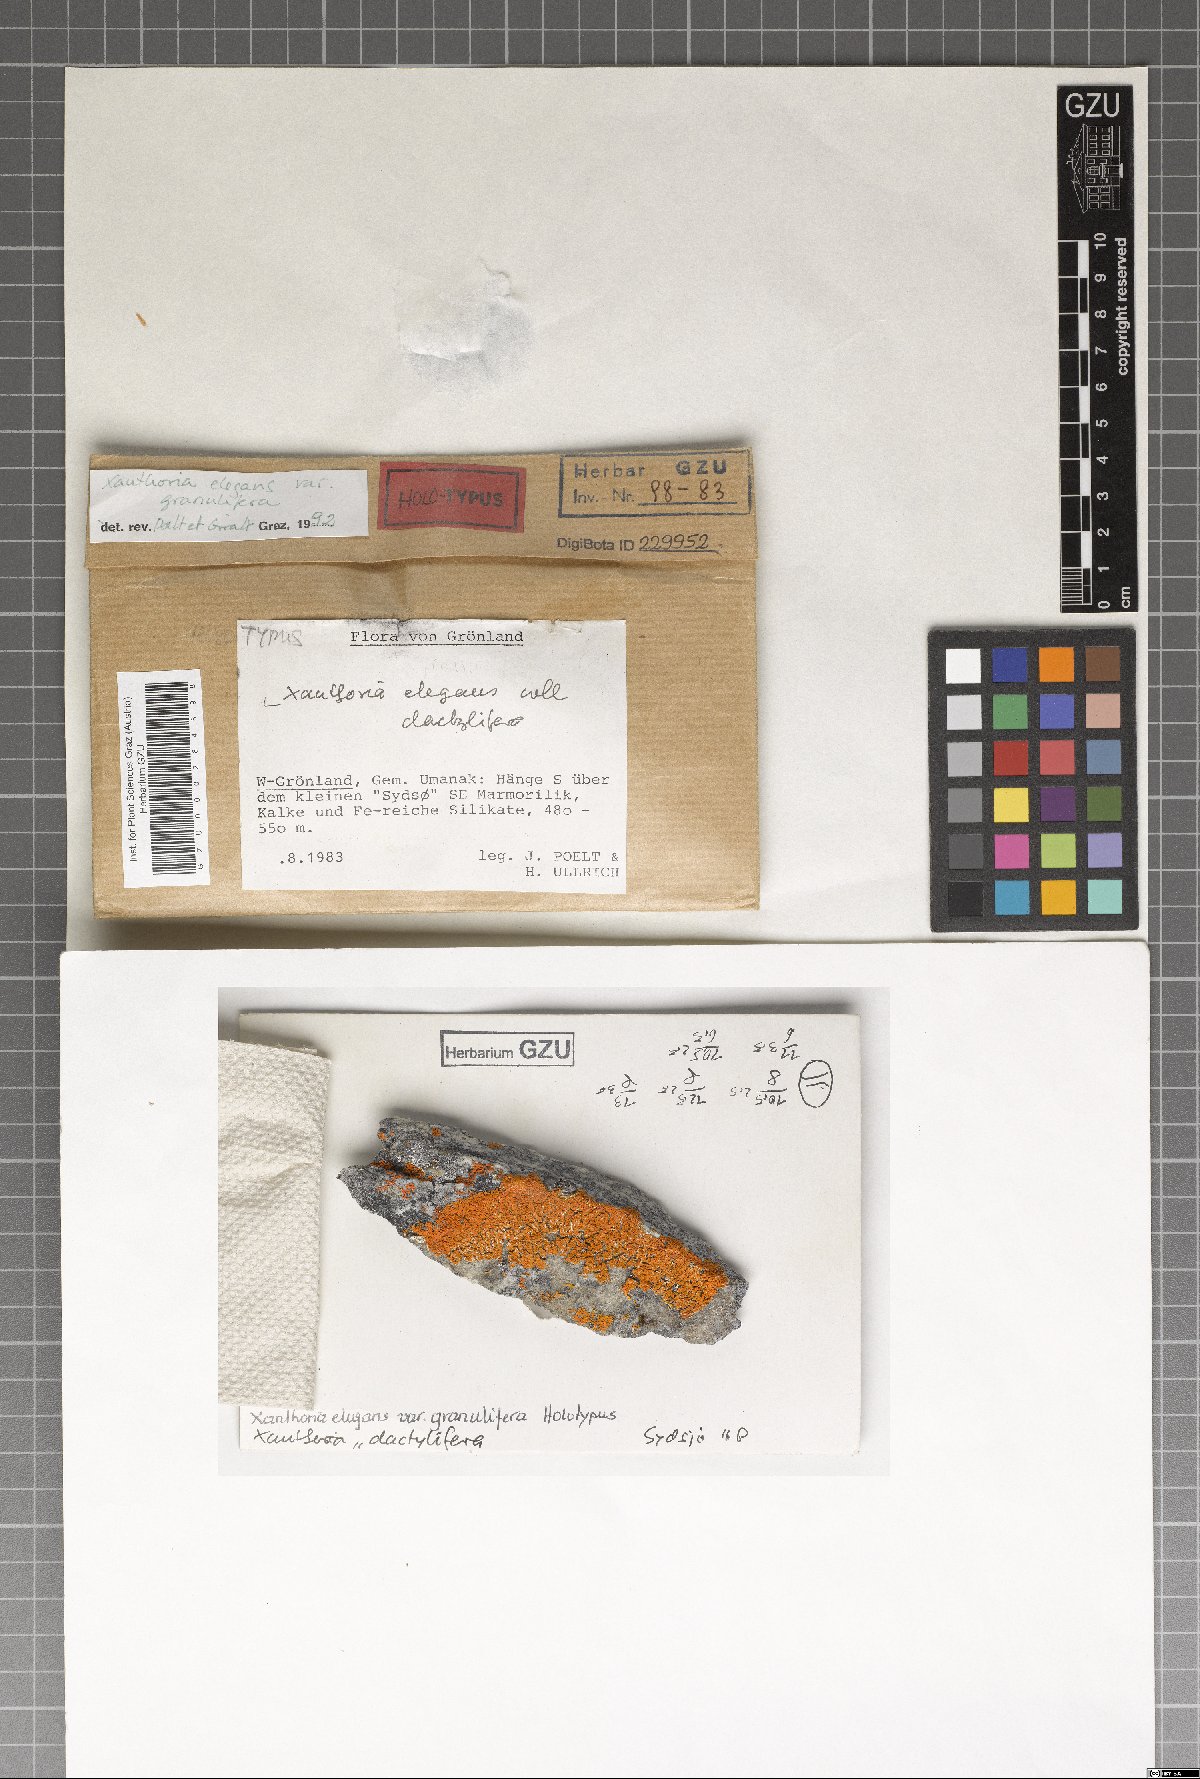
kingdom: Fungi
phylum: Ascomycota
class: Lecanoromycetes
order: Teloschistales
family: Teloschistaceae
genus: Rusavskia
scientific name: Rusavskia granulifera
